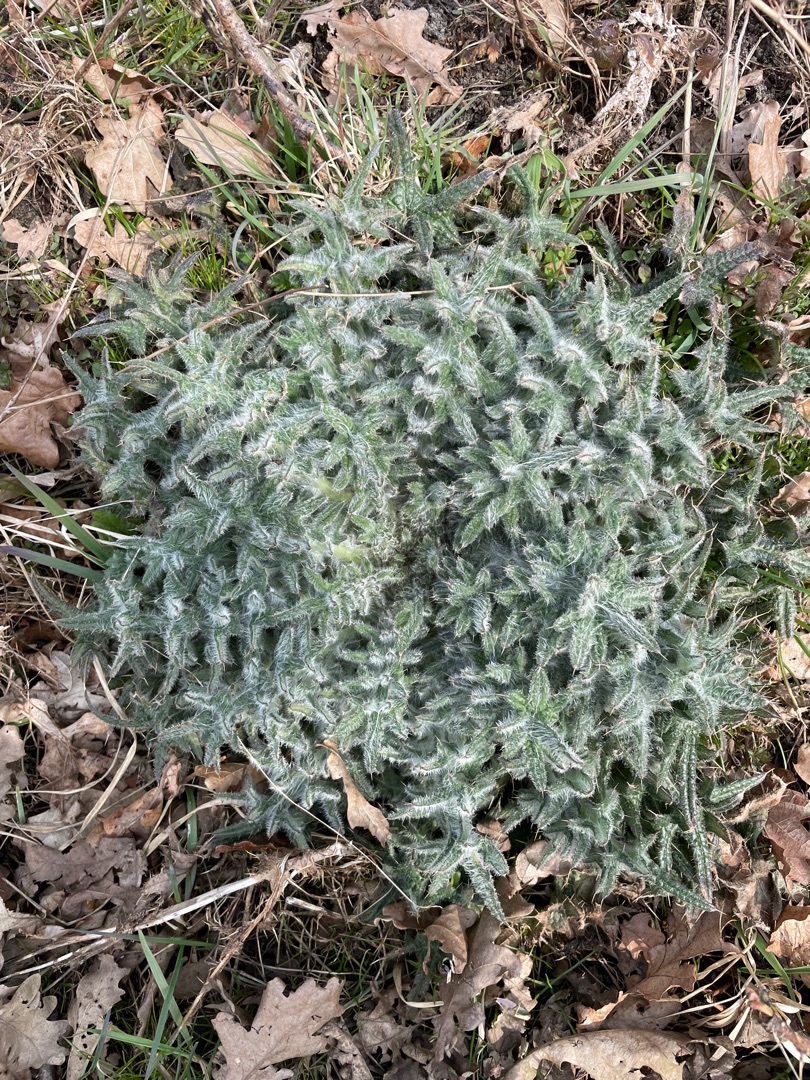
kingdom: Plantae
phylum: Tracheophyta
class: Magnoliopsida
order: Asterales
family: Asteraceae
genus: Cirsium
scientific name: Cirsium vulgare
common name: Horse-tidsel
